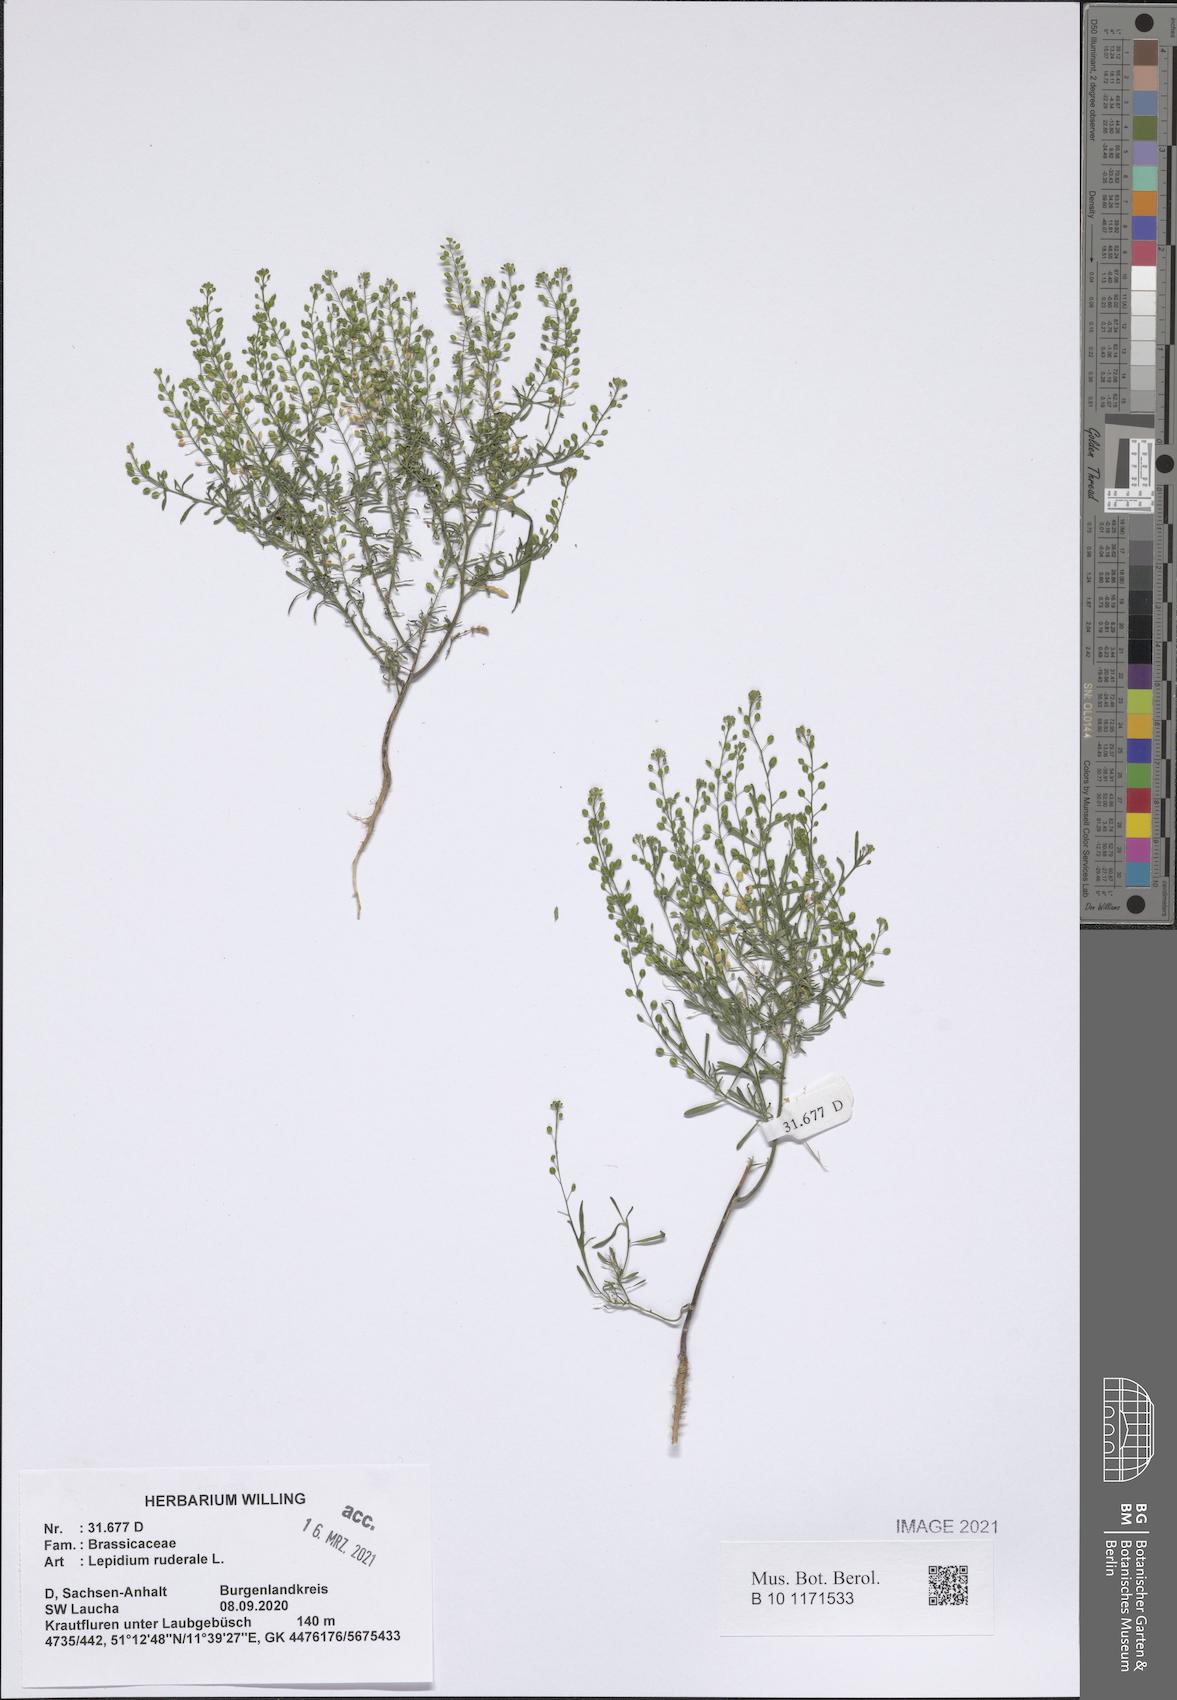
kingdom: Plantae
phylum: Tracheophyta
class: Magnoliopsida
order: Brassicales
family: Brassicaceae
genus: Lepidium
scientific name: Lepidium ruderale
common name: Narrow-leaved pepperwort
